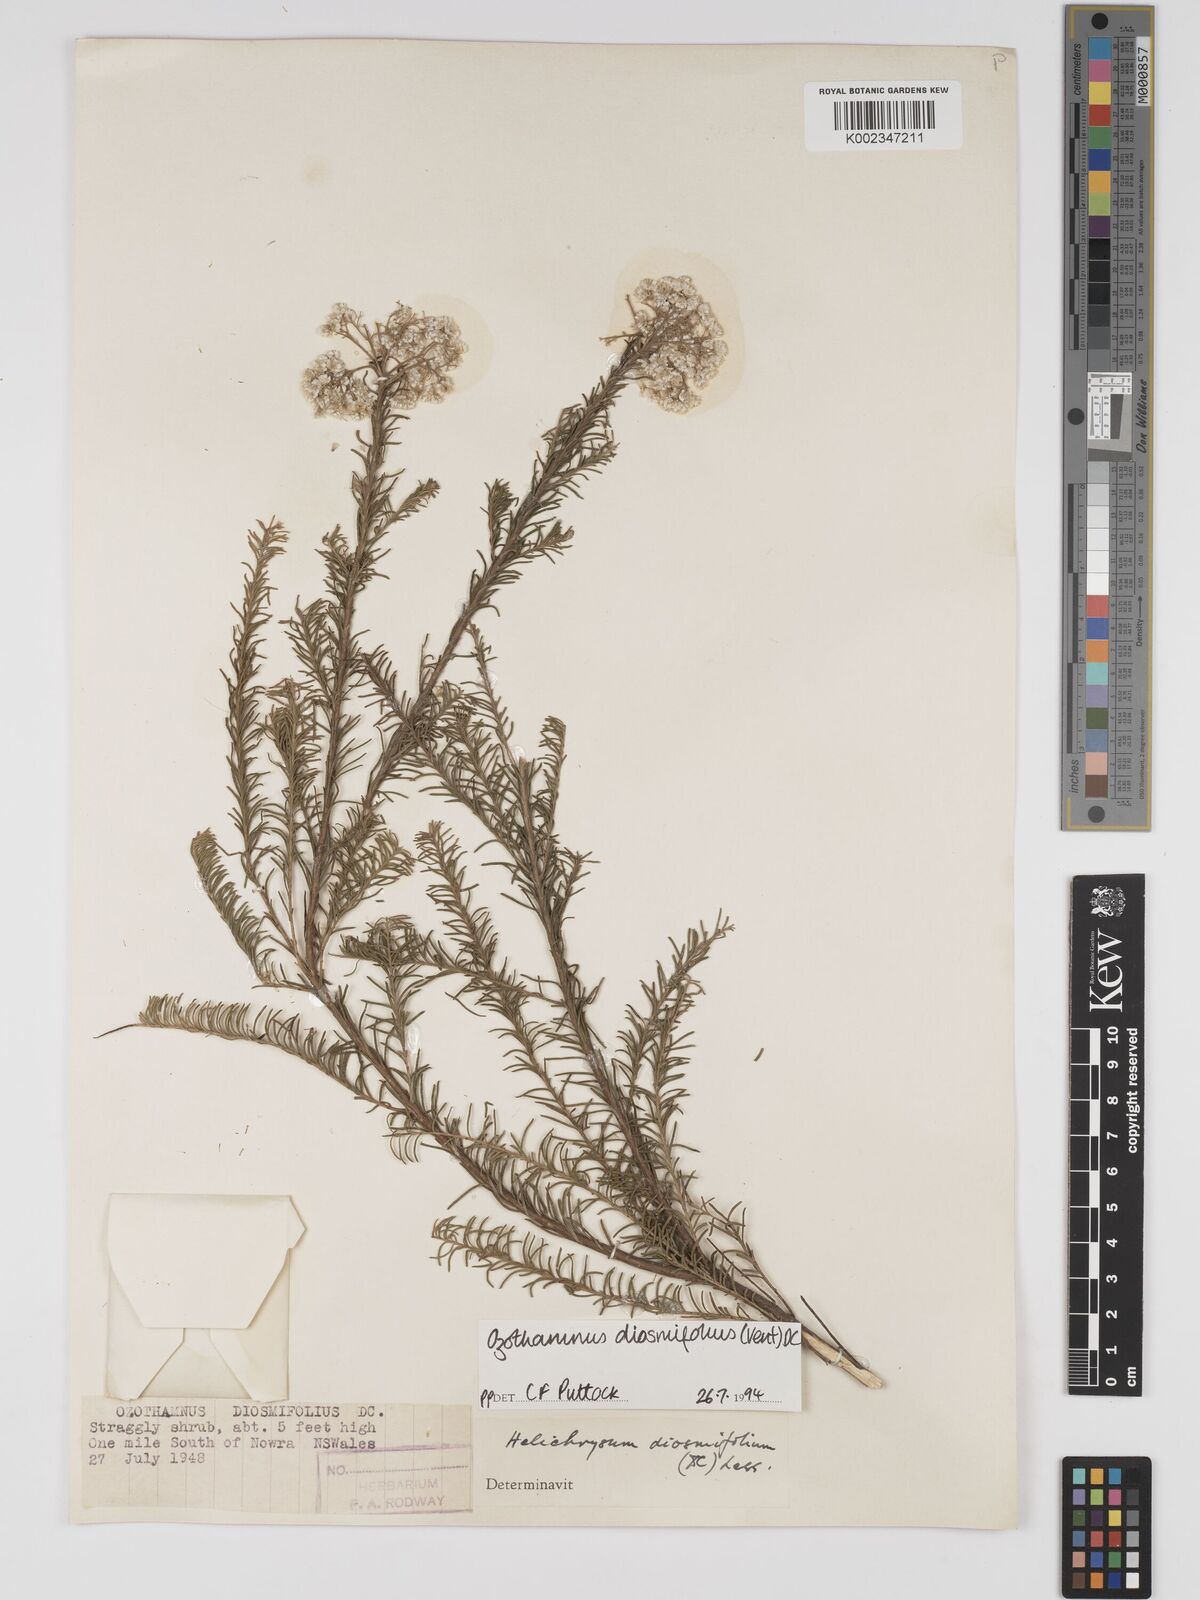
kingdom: Plantae
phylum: Tracheophyta
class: Magnoliopsida
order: Asterales
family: Asteraceae
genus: Ozothamnus
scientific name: Ozothamnus diosmifolius
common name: White-dogwood
